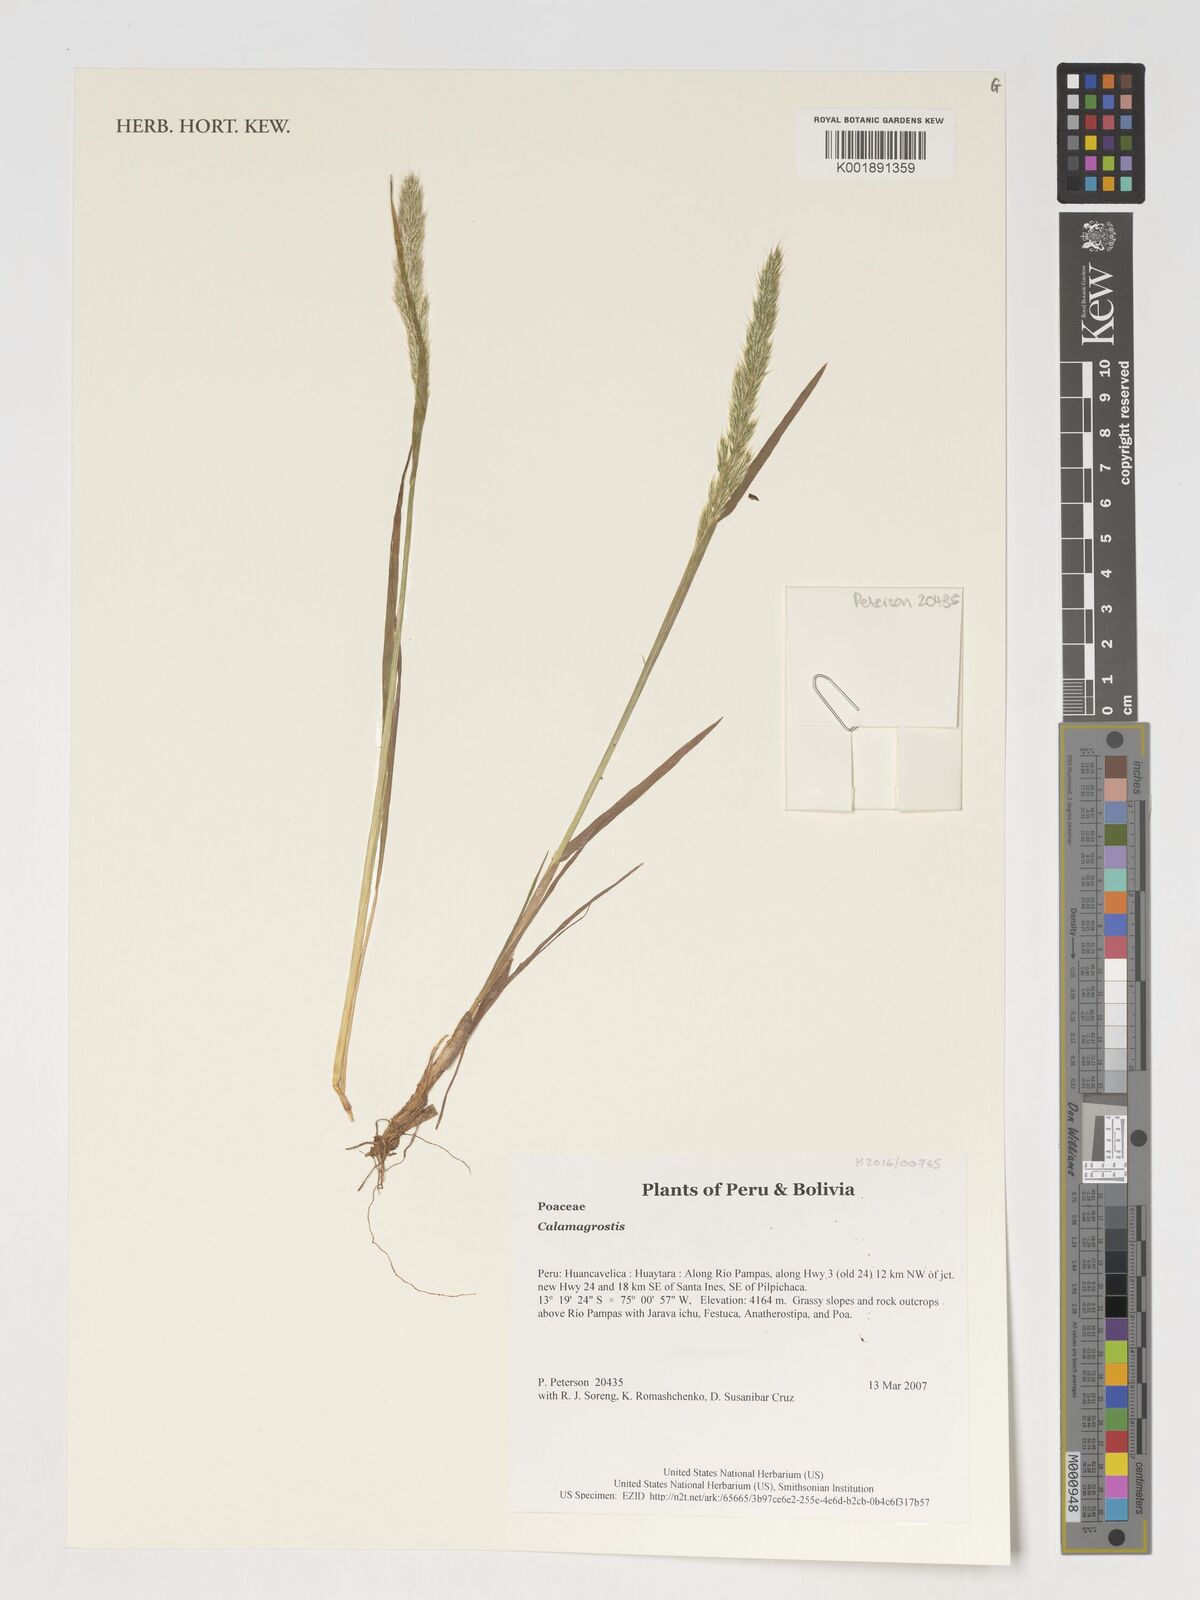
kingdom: Plantae
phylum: Tracheophyta
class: Liliopsida
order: Poales
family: Poaceae
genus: Calamagrostis
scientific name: Calamagrostis
